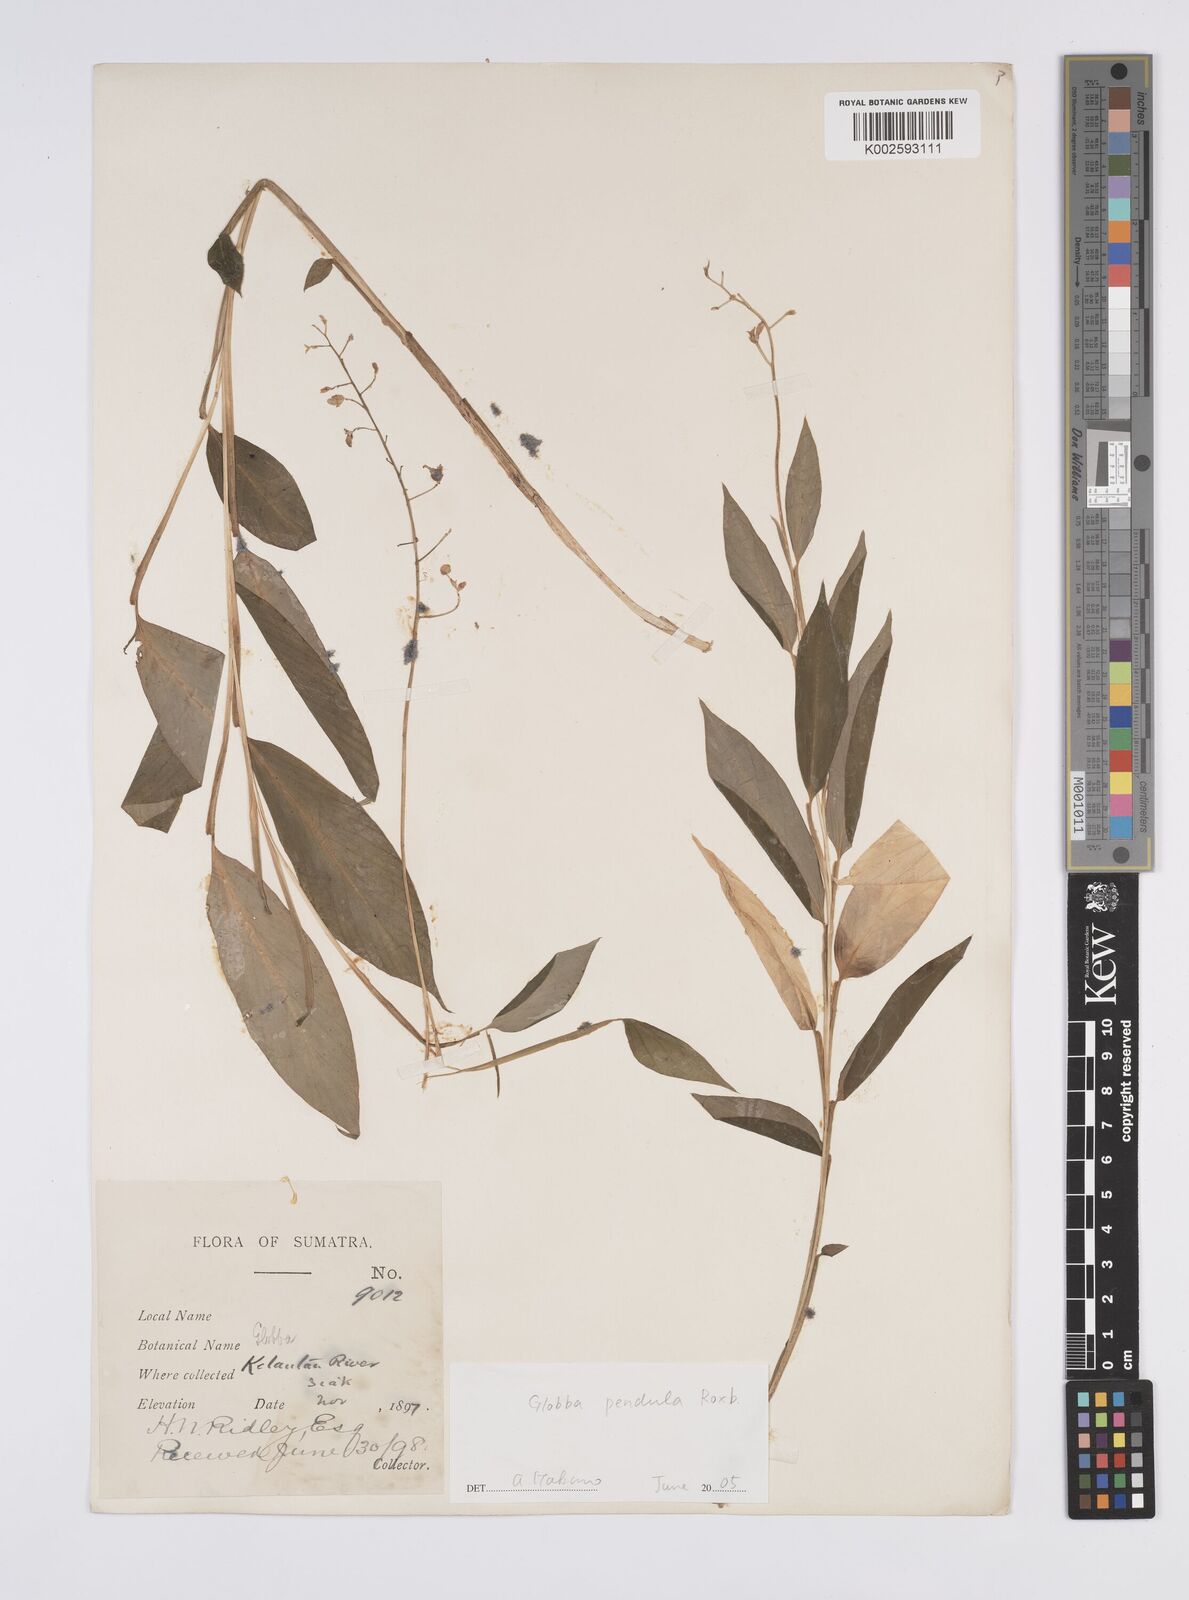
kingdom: Plantae
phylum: Tracheophyta
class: Liliopsida
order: Zingiberales
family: Zingiberaceae
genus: Globba
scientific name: Globba pendula
